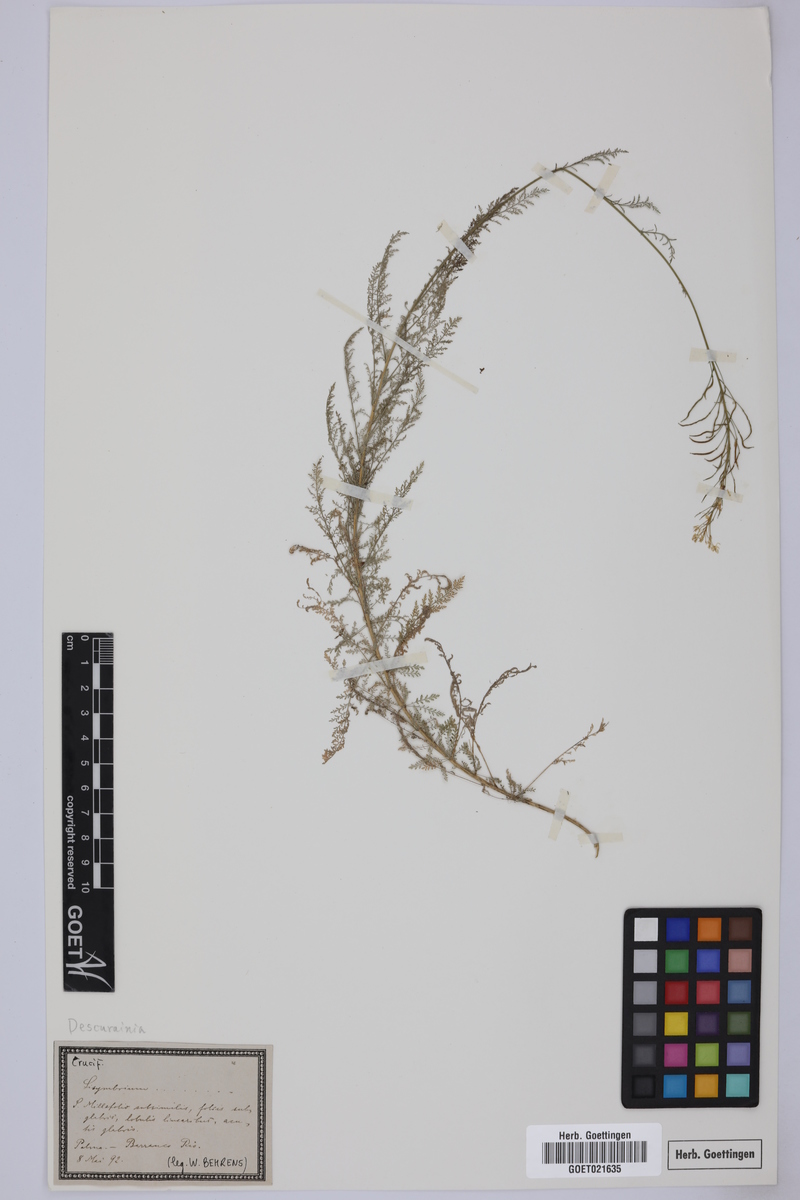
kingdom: Plantae
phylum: Tracheophyta
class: Magnoliopsida
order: Brassicales
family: Brassicaceae
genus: Descurainia
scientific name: Descurainia
